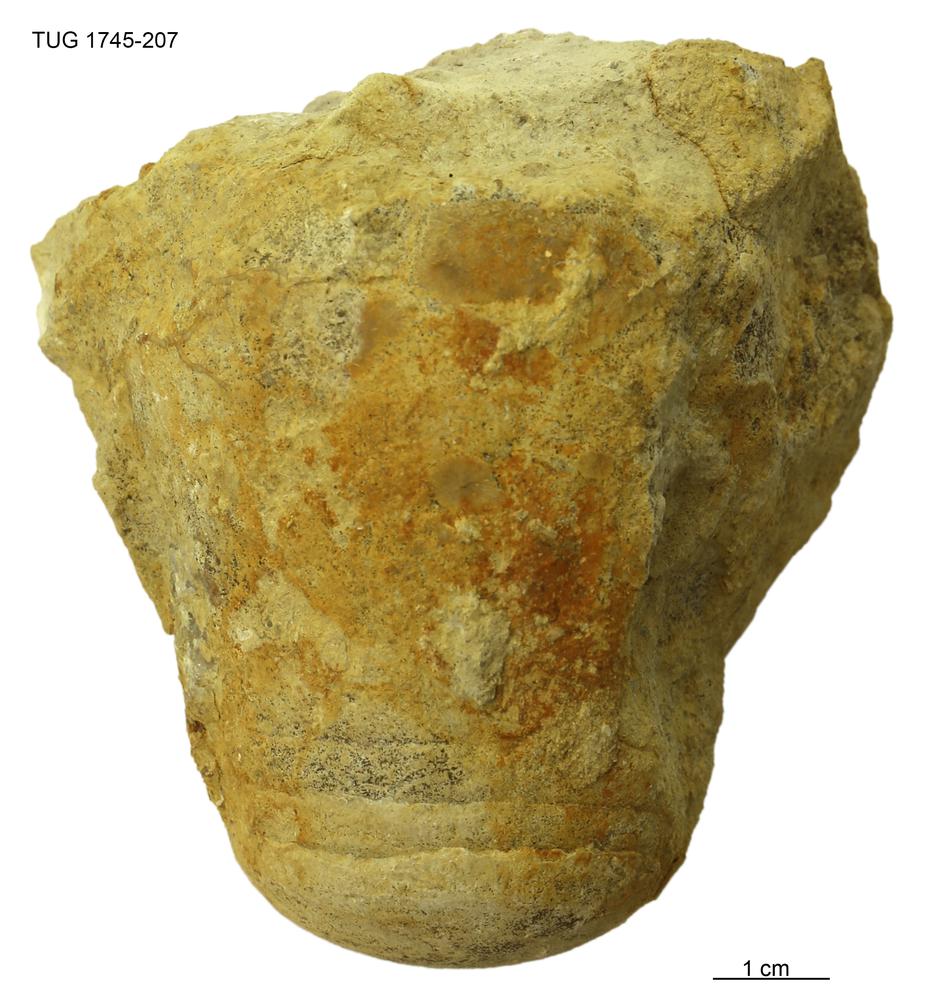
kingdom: Animalia
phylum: Mollusca
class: Cephalopoda
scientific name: Cephalopoda
